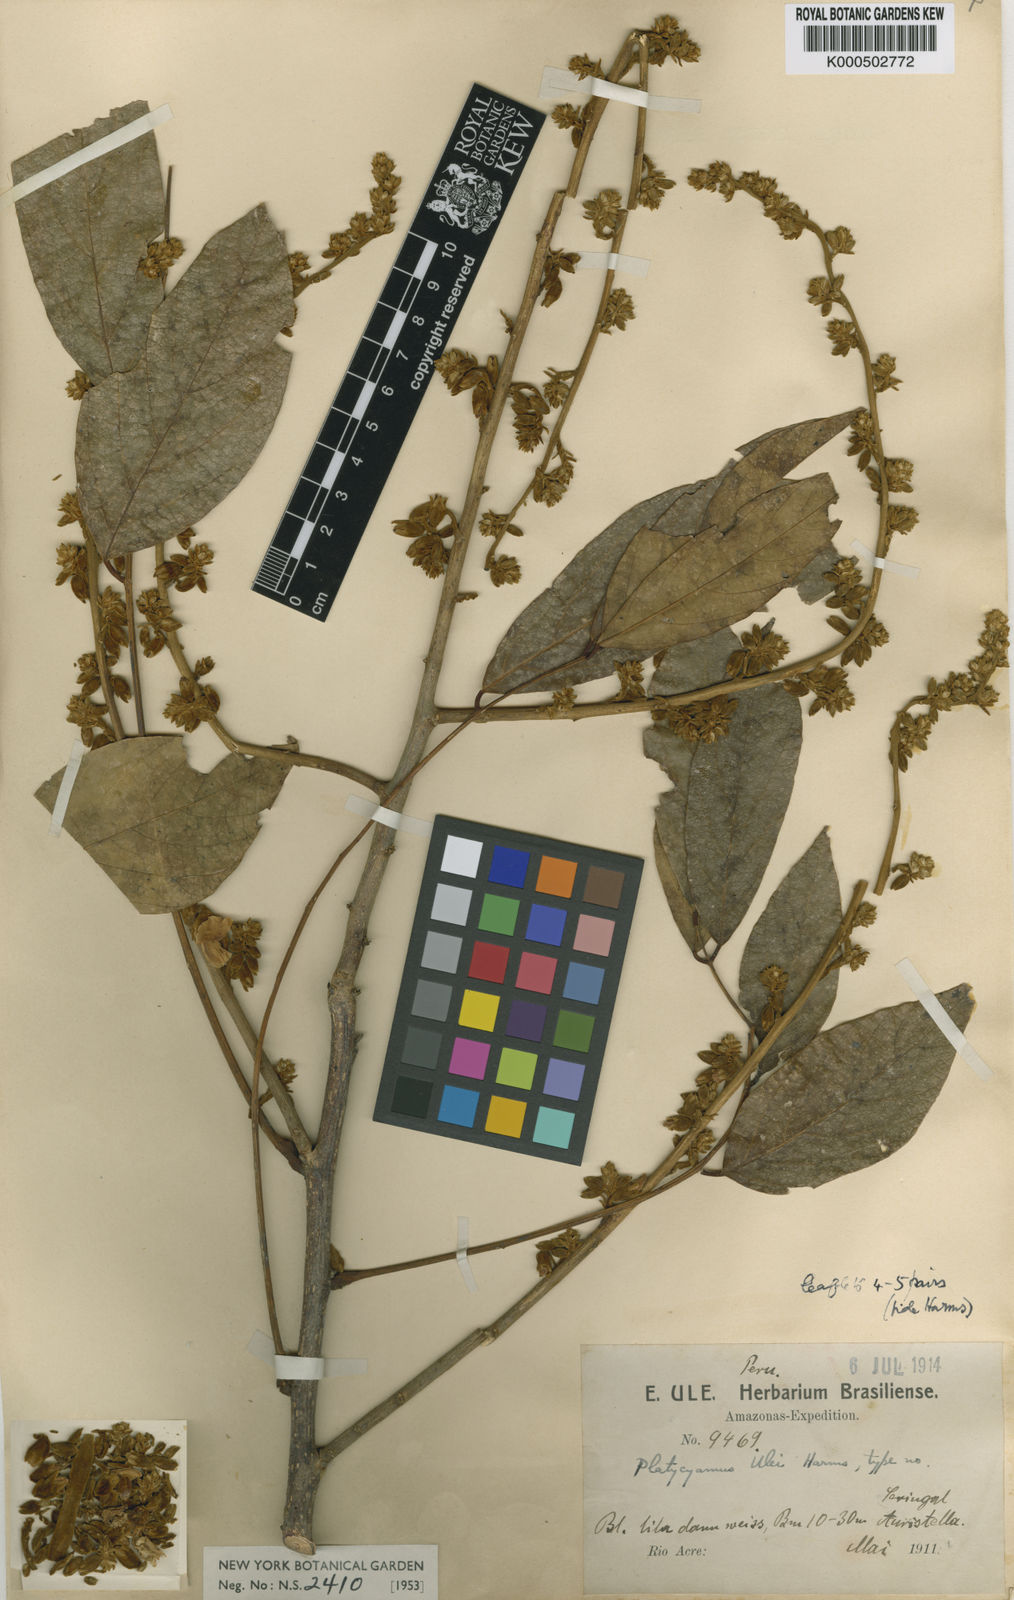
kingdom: Plantae
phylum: Tracheophyta
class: Magnoliopsida
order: Fabales
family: Fabaceae
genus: Platycyamus
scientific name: Platycyamus ulei
